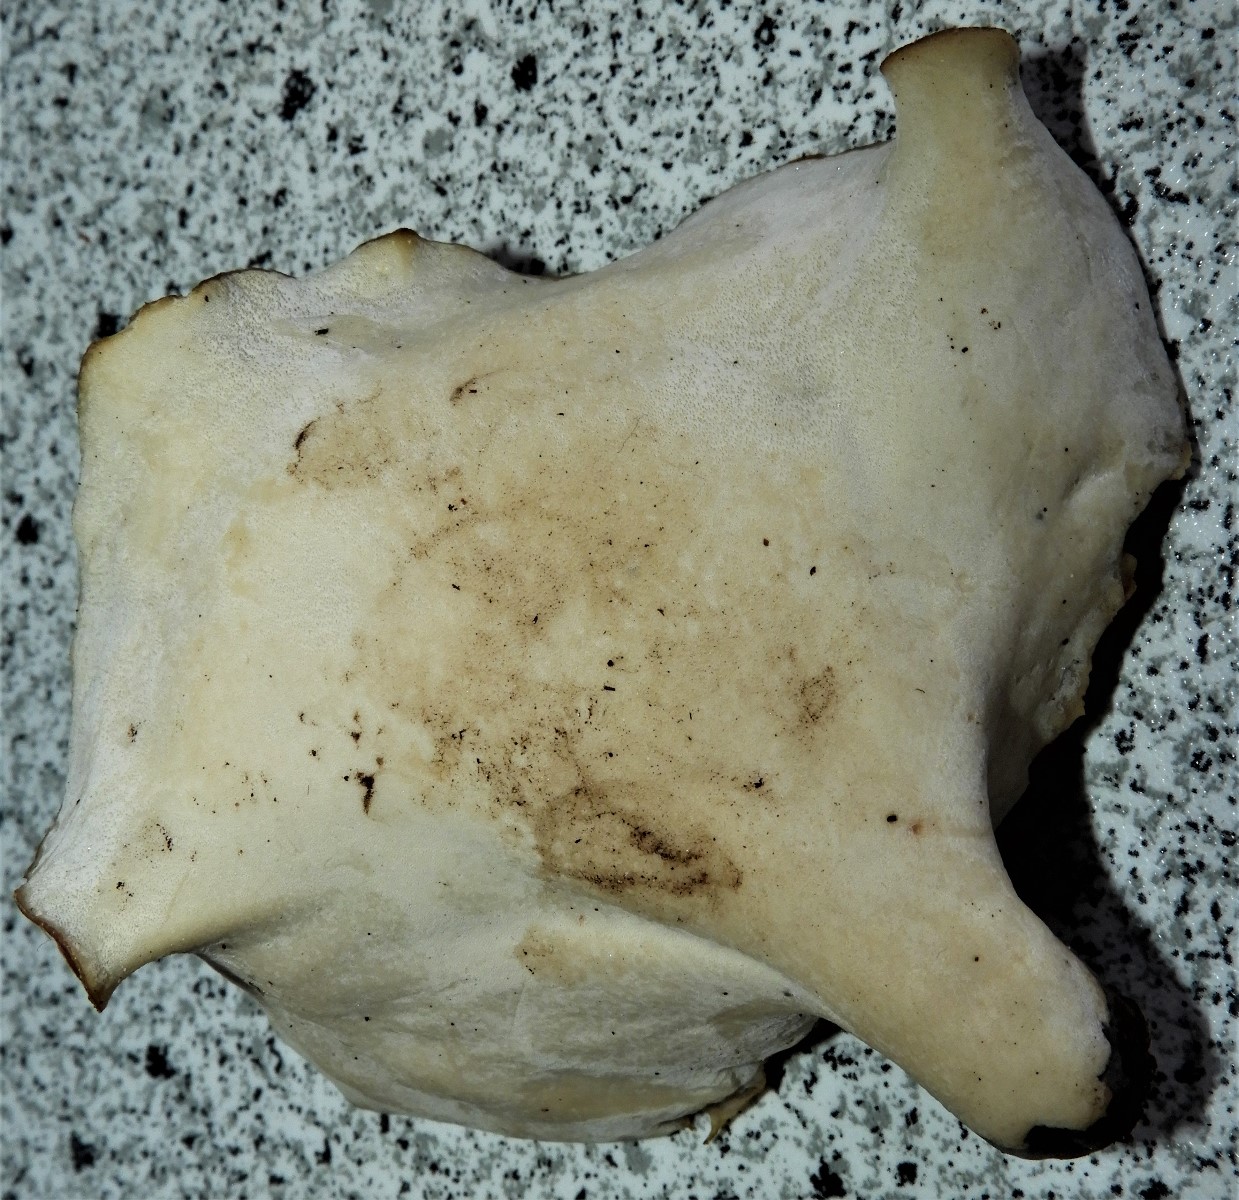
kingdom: Fungi
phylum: Basidiomycota
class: Agaricomycetes
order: Polyporales
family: Polyporaceae
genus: Picipes
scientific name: Picipes badius
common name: kastaniebrun stilkporesvamp
